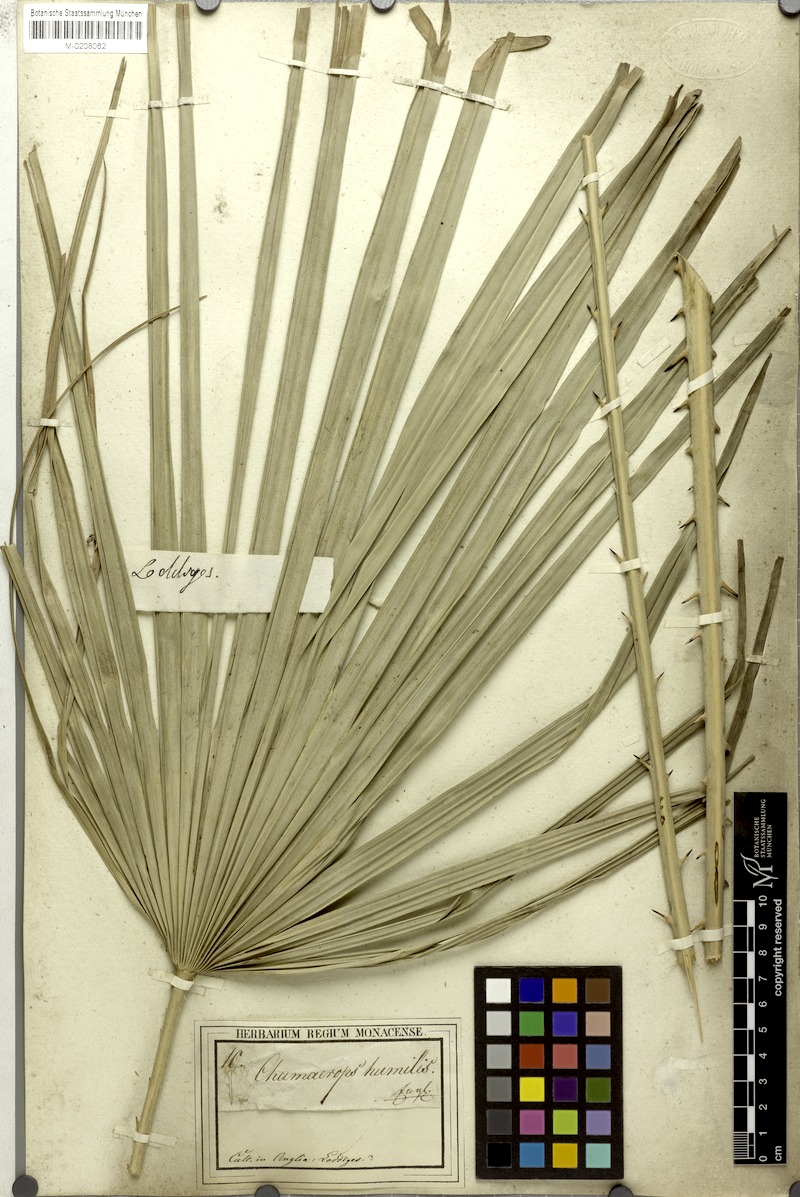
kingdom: Plantae
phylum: Tracheophyta
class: Liliopsida
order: Arecales
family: Arecaceae
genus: Chamaerops
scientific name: Chamaerops humilis
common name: Dwarf fan palm
